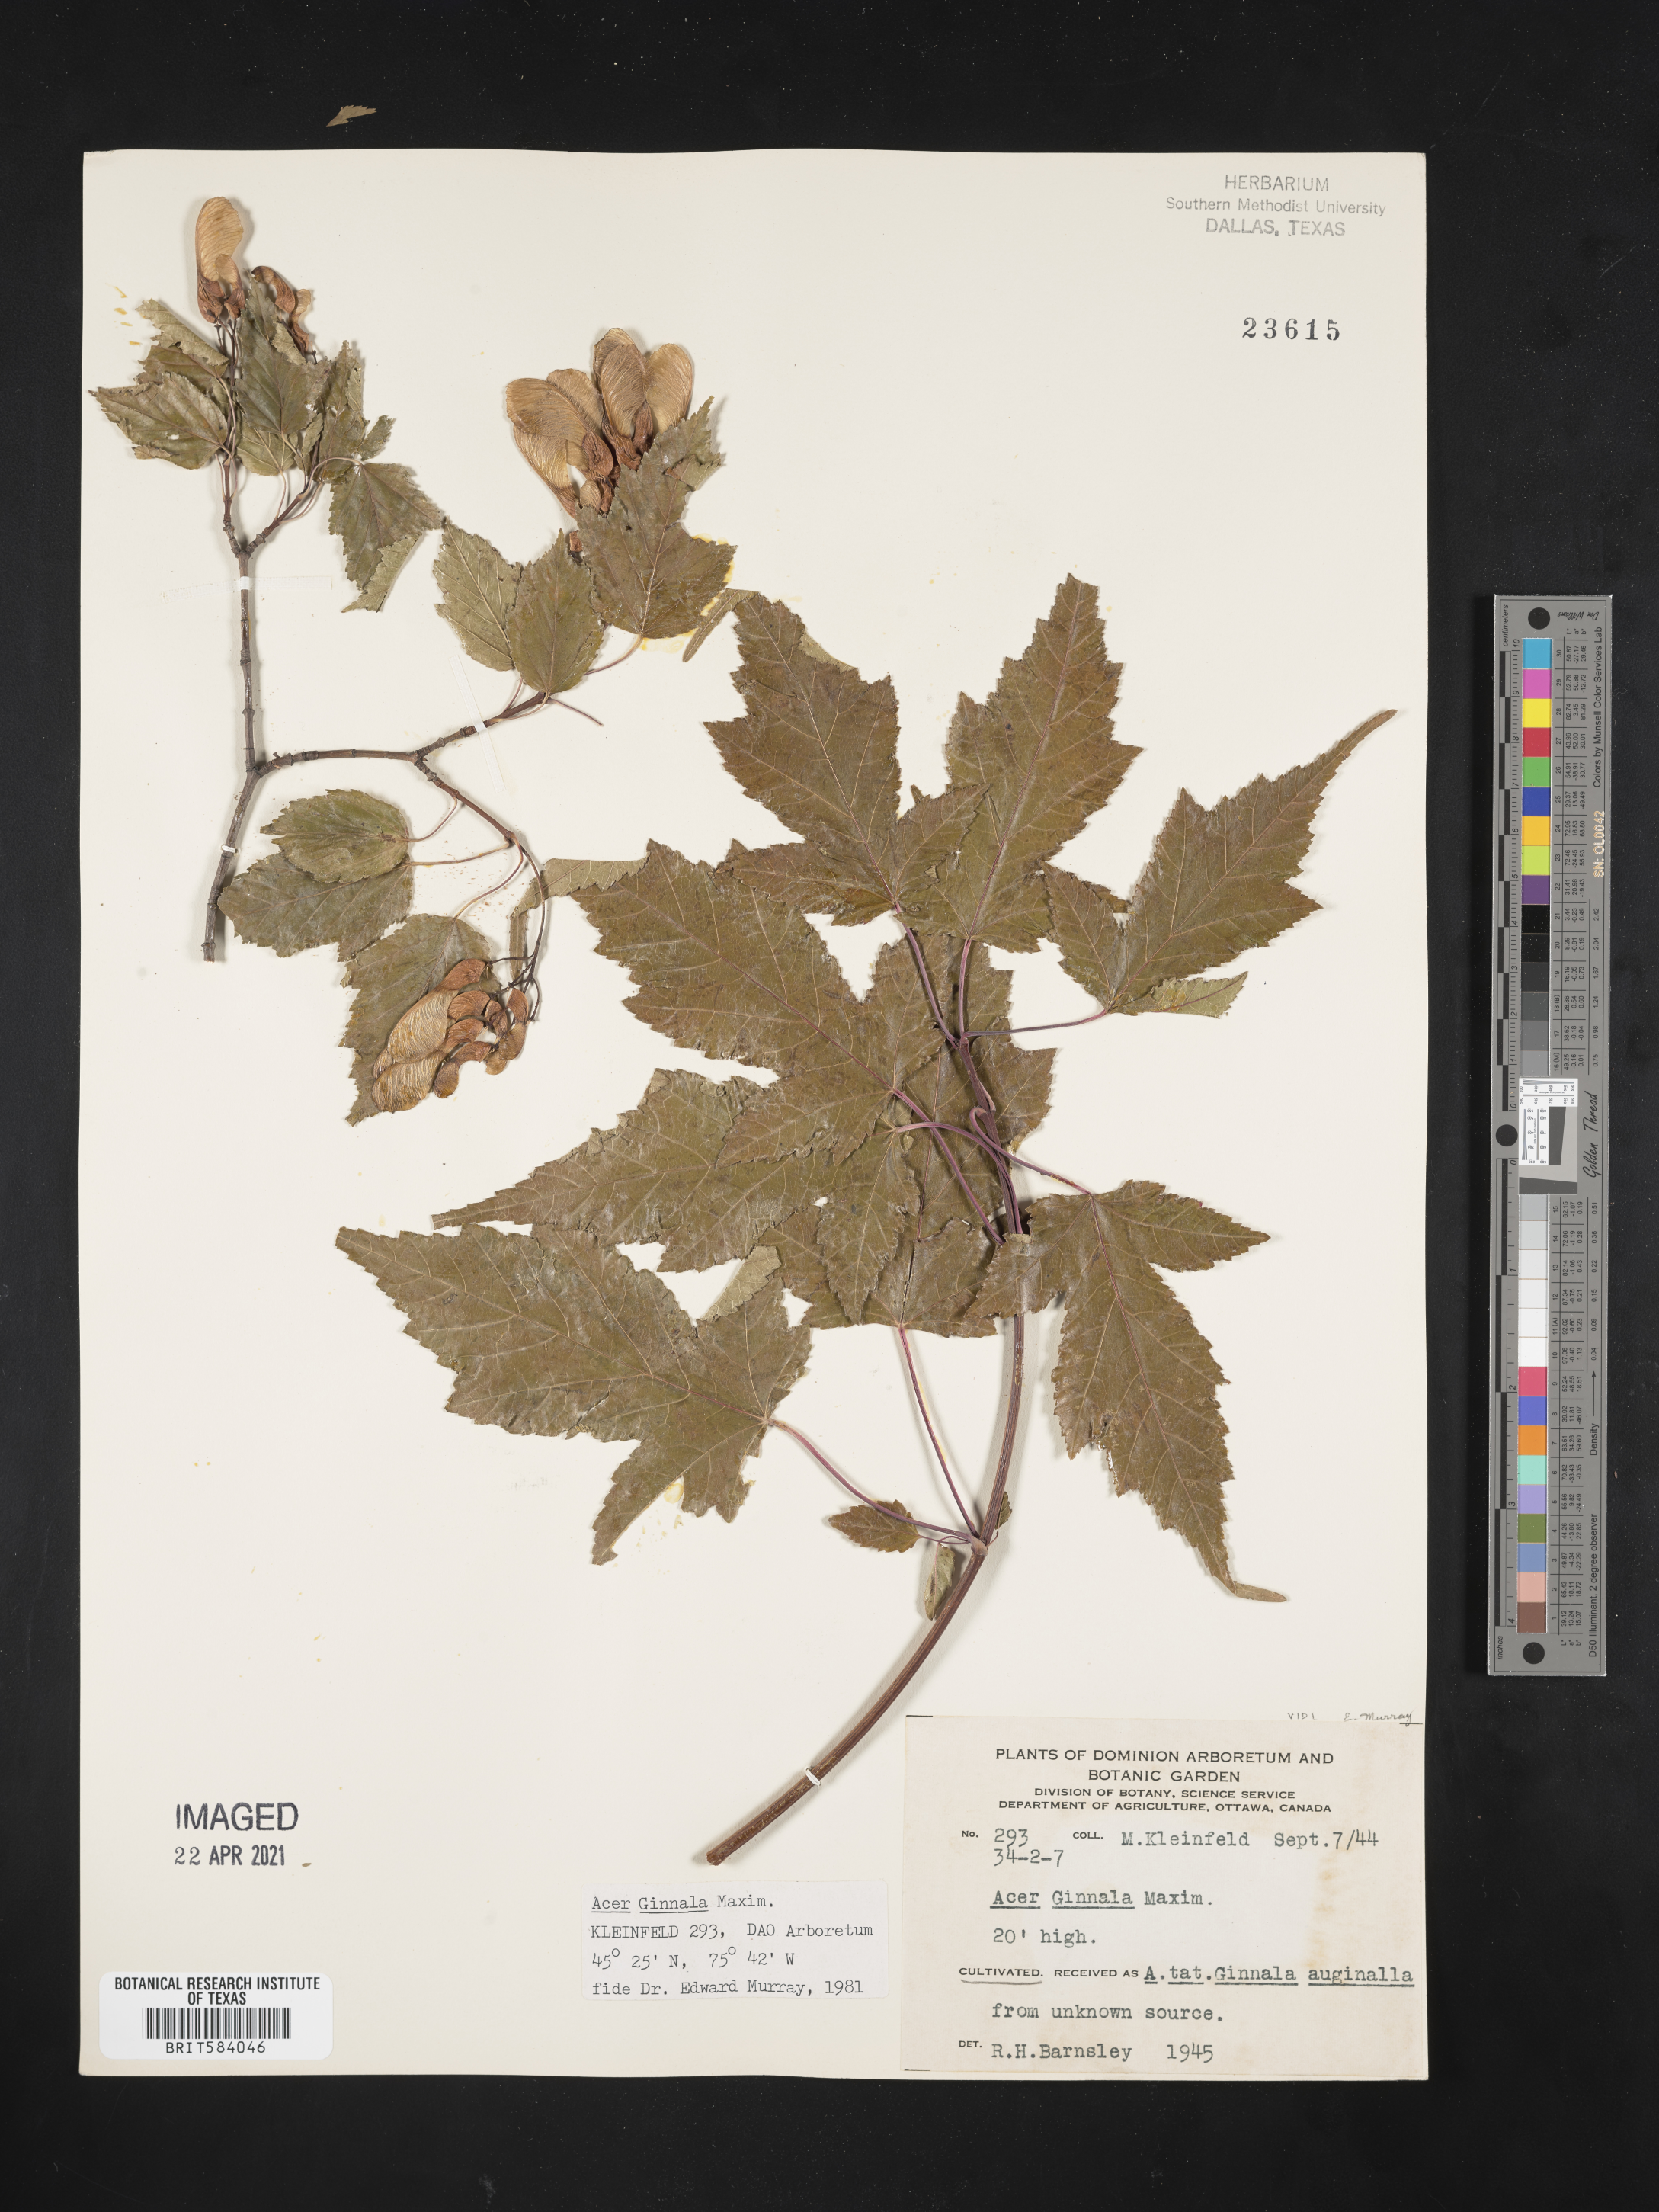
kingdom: Plantae
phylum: Tracheophyta
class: Magnoliopsida
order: Sapindales
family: Sapindaceae
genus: Acer
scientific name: Acer tataricum
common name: Tartar maple
